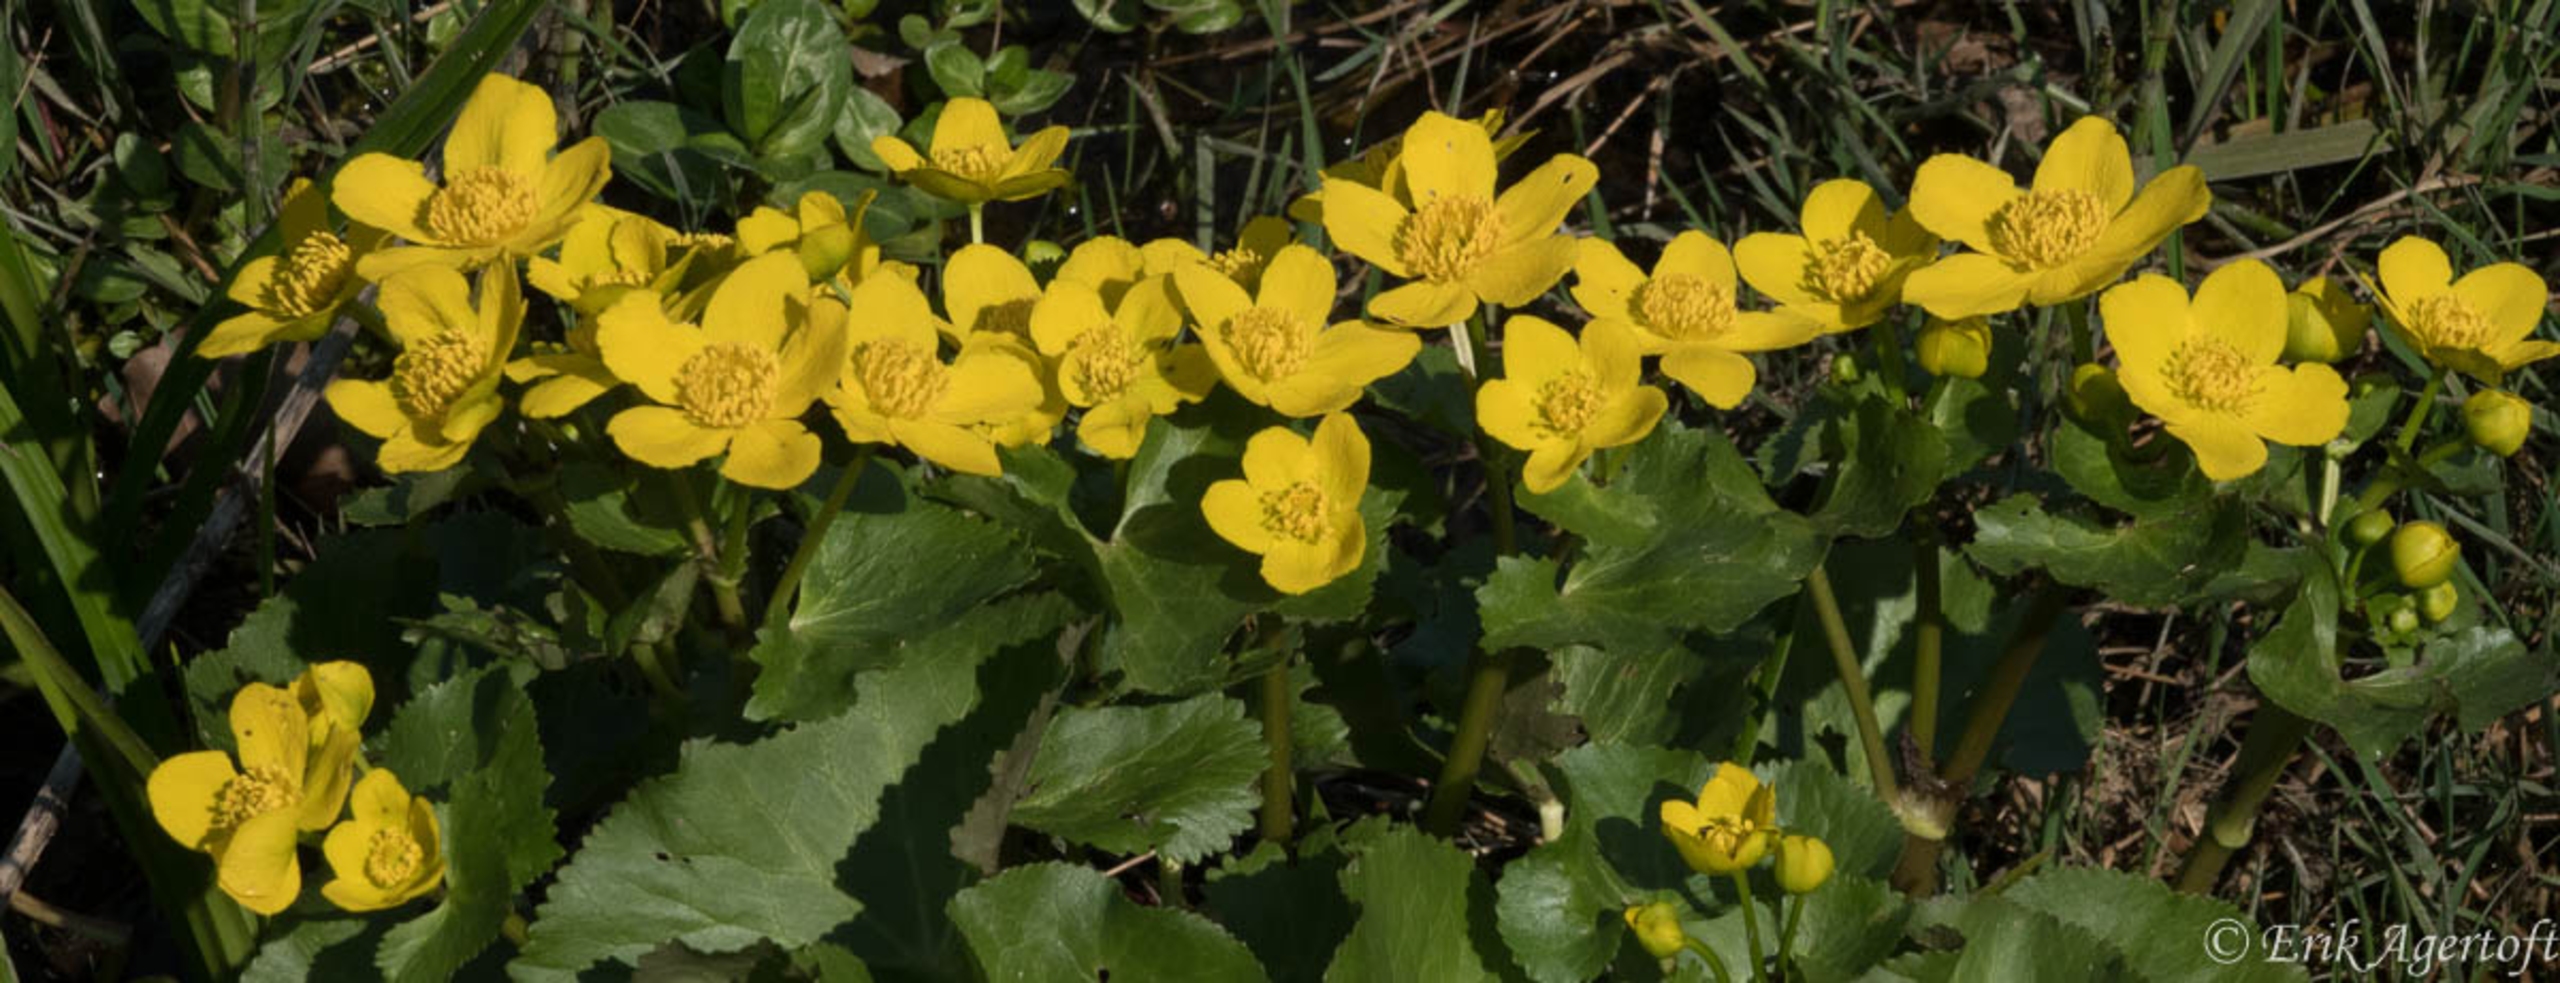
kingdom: Plantae
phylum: Tracheophyta
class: Magnoliopsida
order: Ranunculales
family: Ranunculaceae
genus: Caltha
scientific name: Caltha palustris
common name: Eng-kabbeleje
